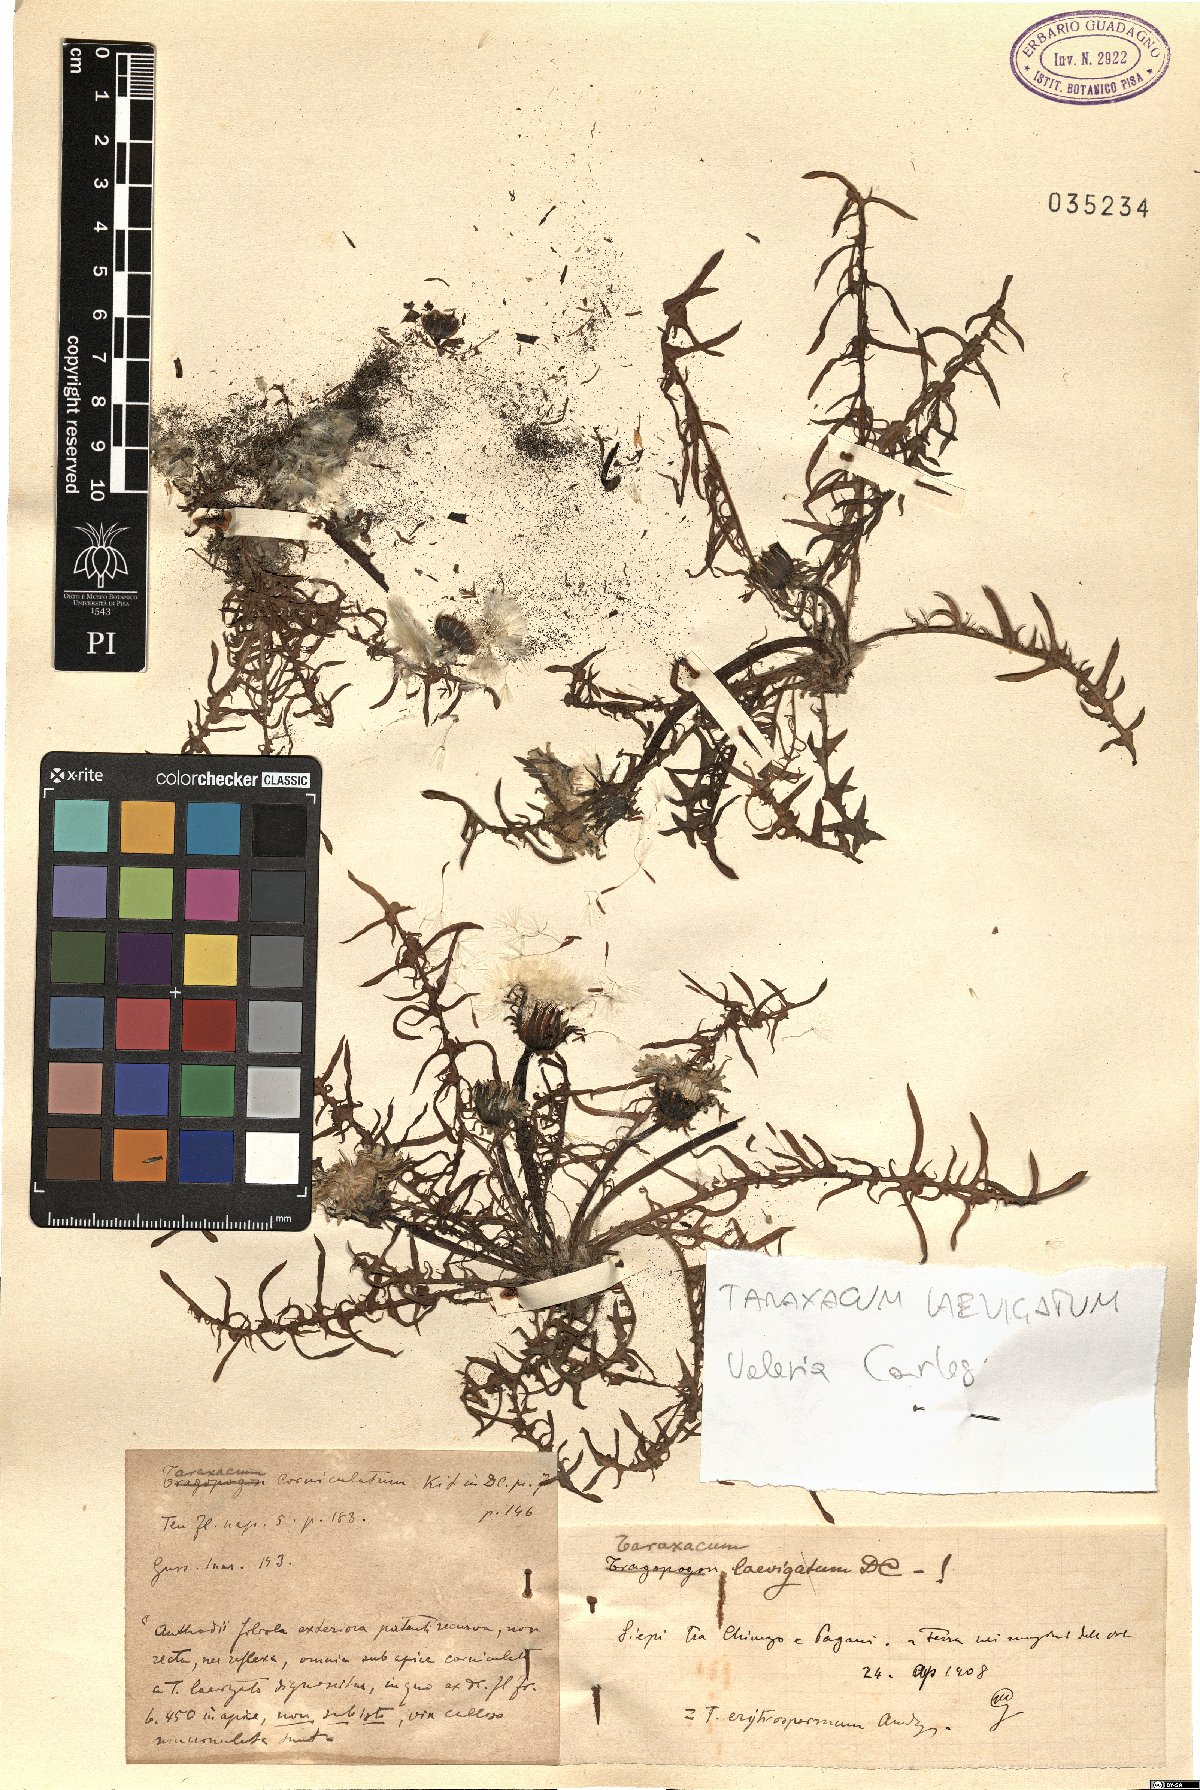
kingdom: Plantae
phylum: Tracheophyta
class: Magnoliopsida
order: Asterales
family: Asteraceae
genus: Taraxacum
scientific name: Taraxacum erythrospermum
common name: Rock dandelion
